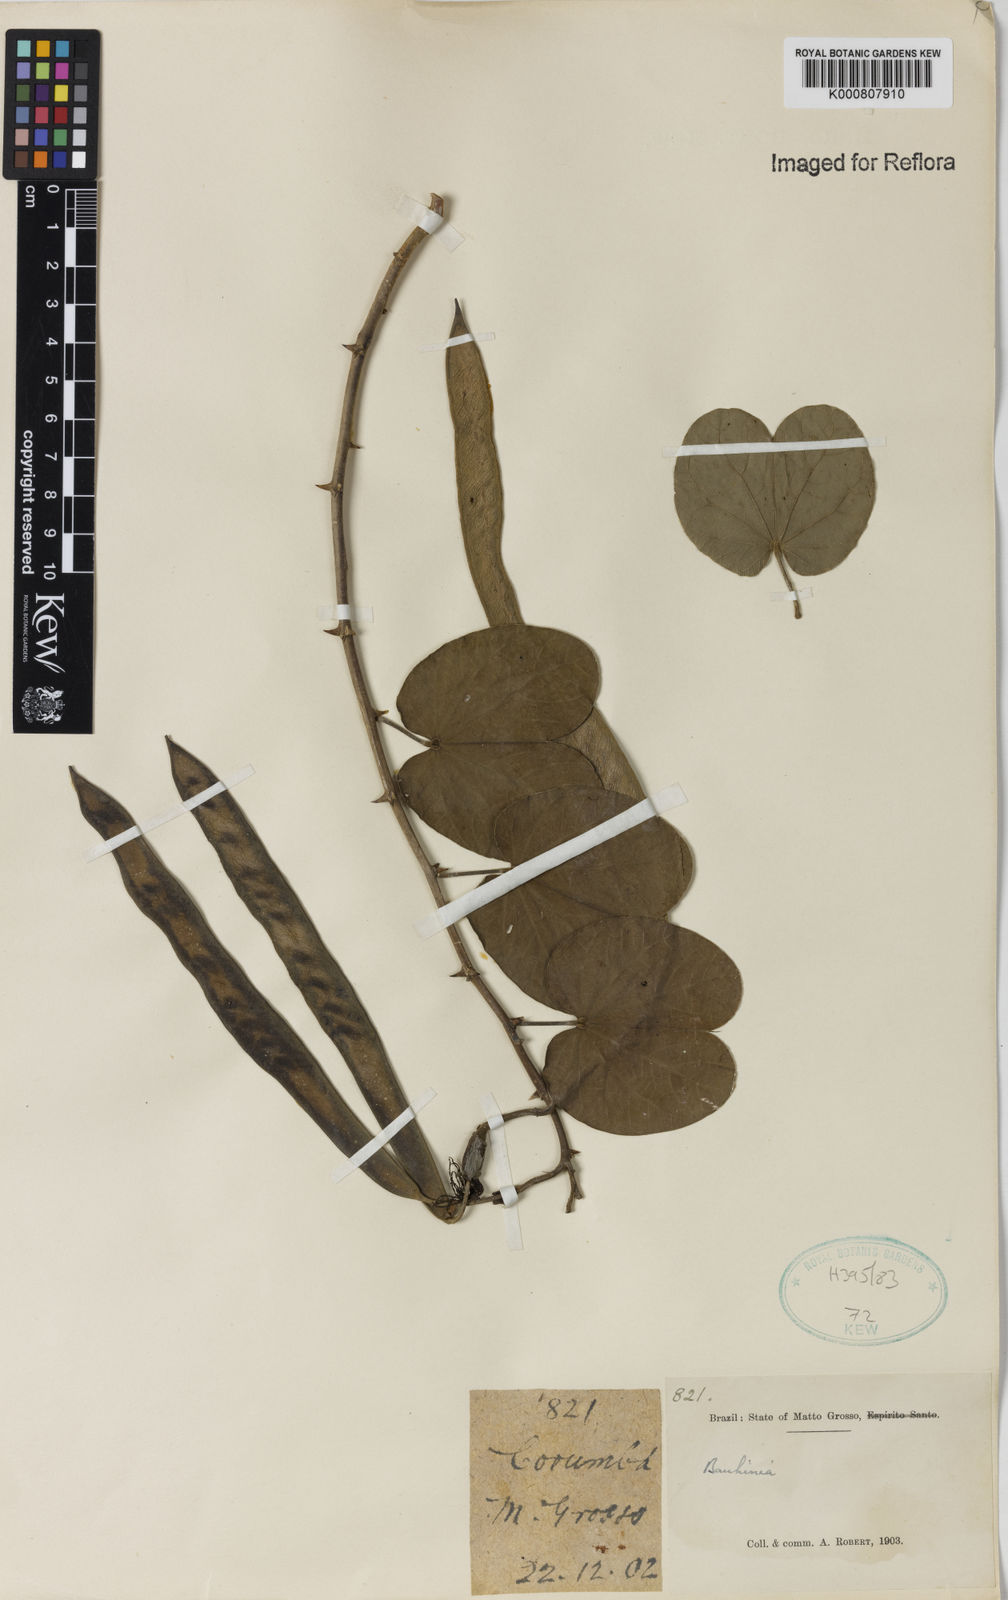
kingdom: Plantae
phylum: Tracheophyta
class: Magnoliopsida
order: Fabales
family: Fabaceae
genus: Bauhinia
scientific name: Bauhinia
